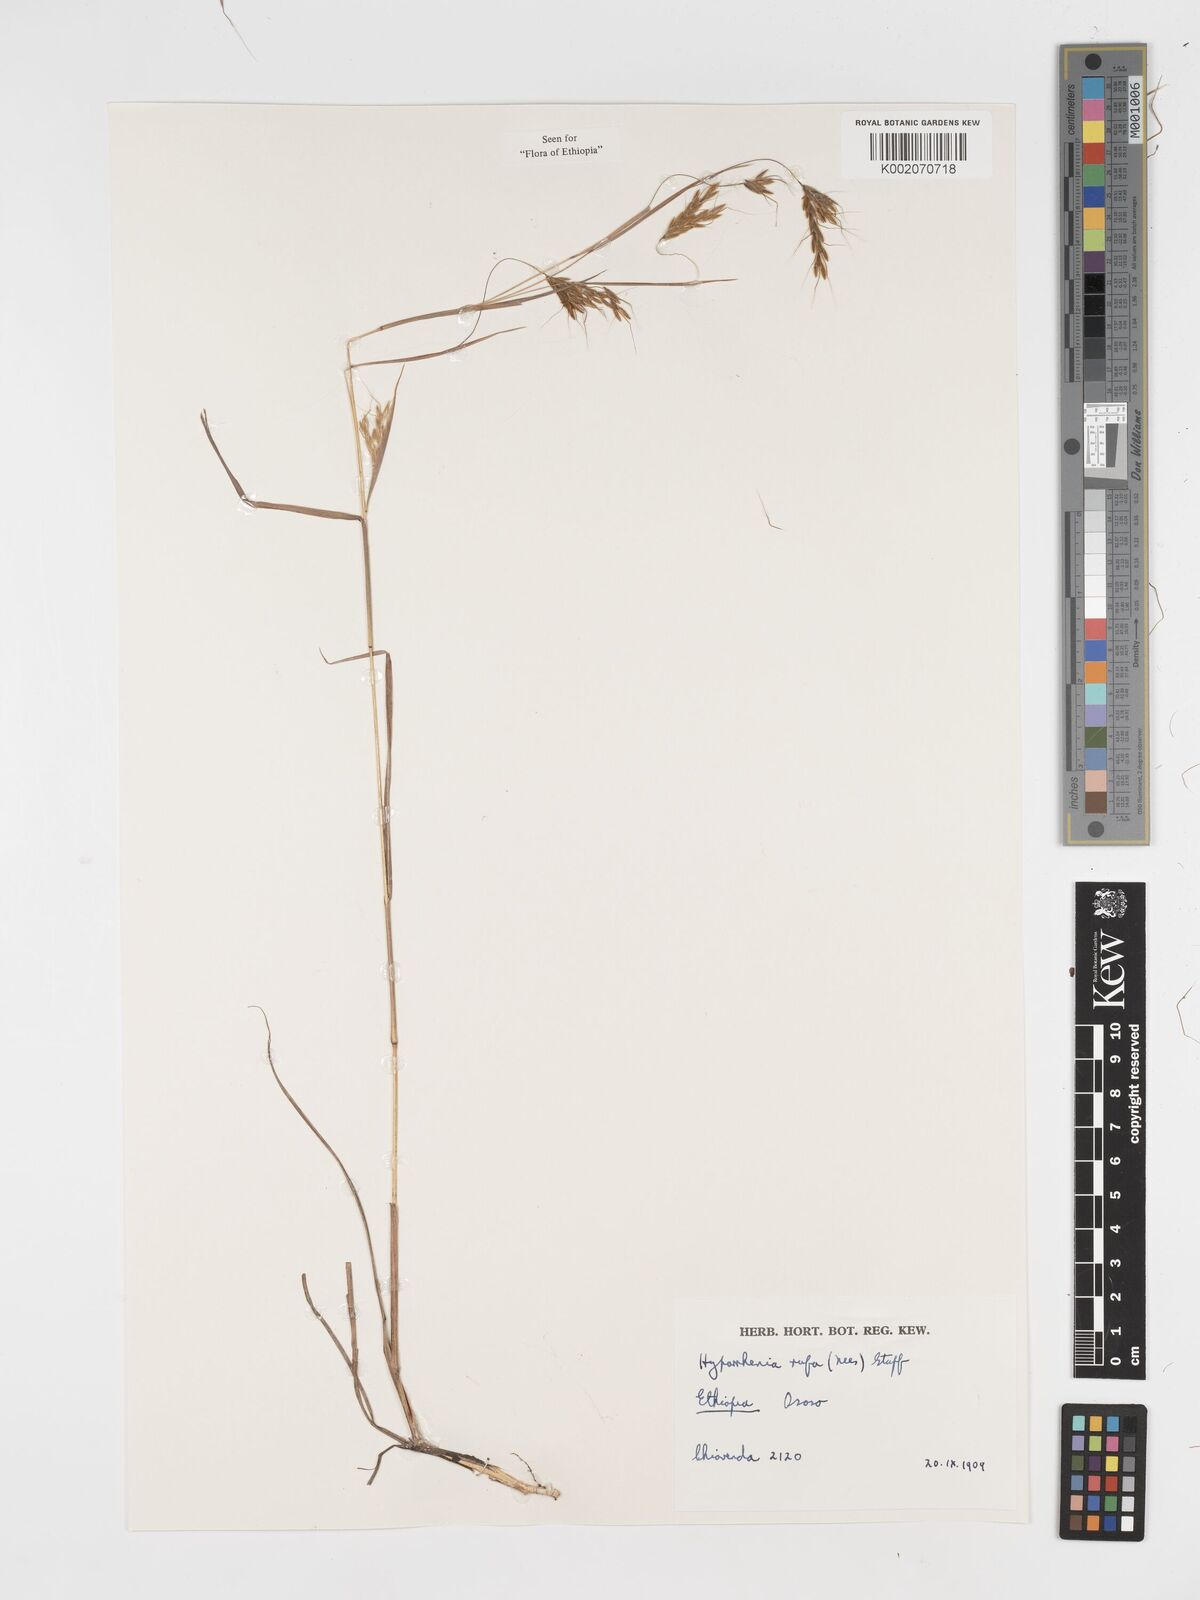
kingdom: Plantae
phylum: Tracheophyta
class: Liliopsida
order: Poales
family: Poaceae
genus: Hyparrhenia
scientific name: Hyparrhenia rufa
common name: Jaraguagrass
